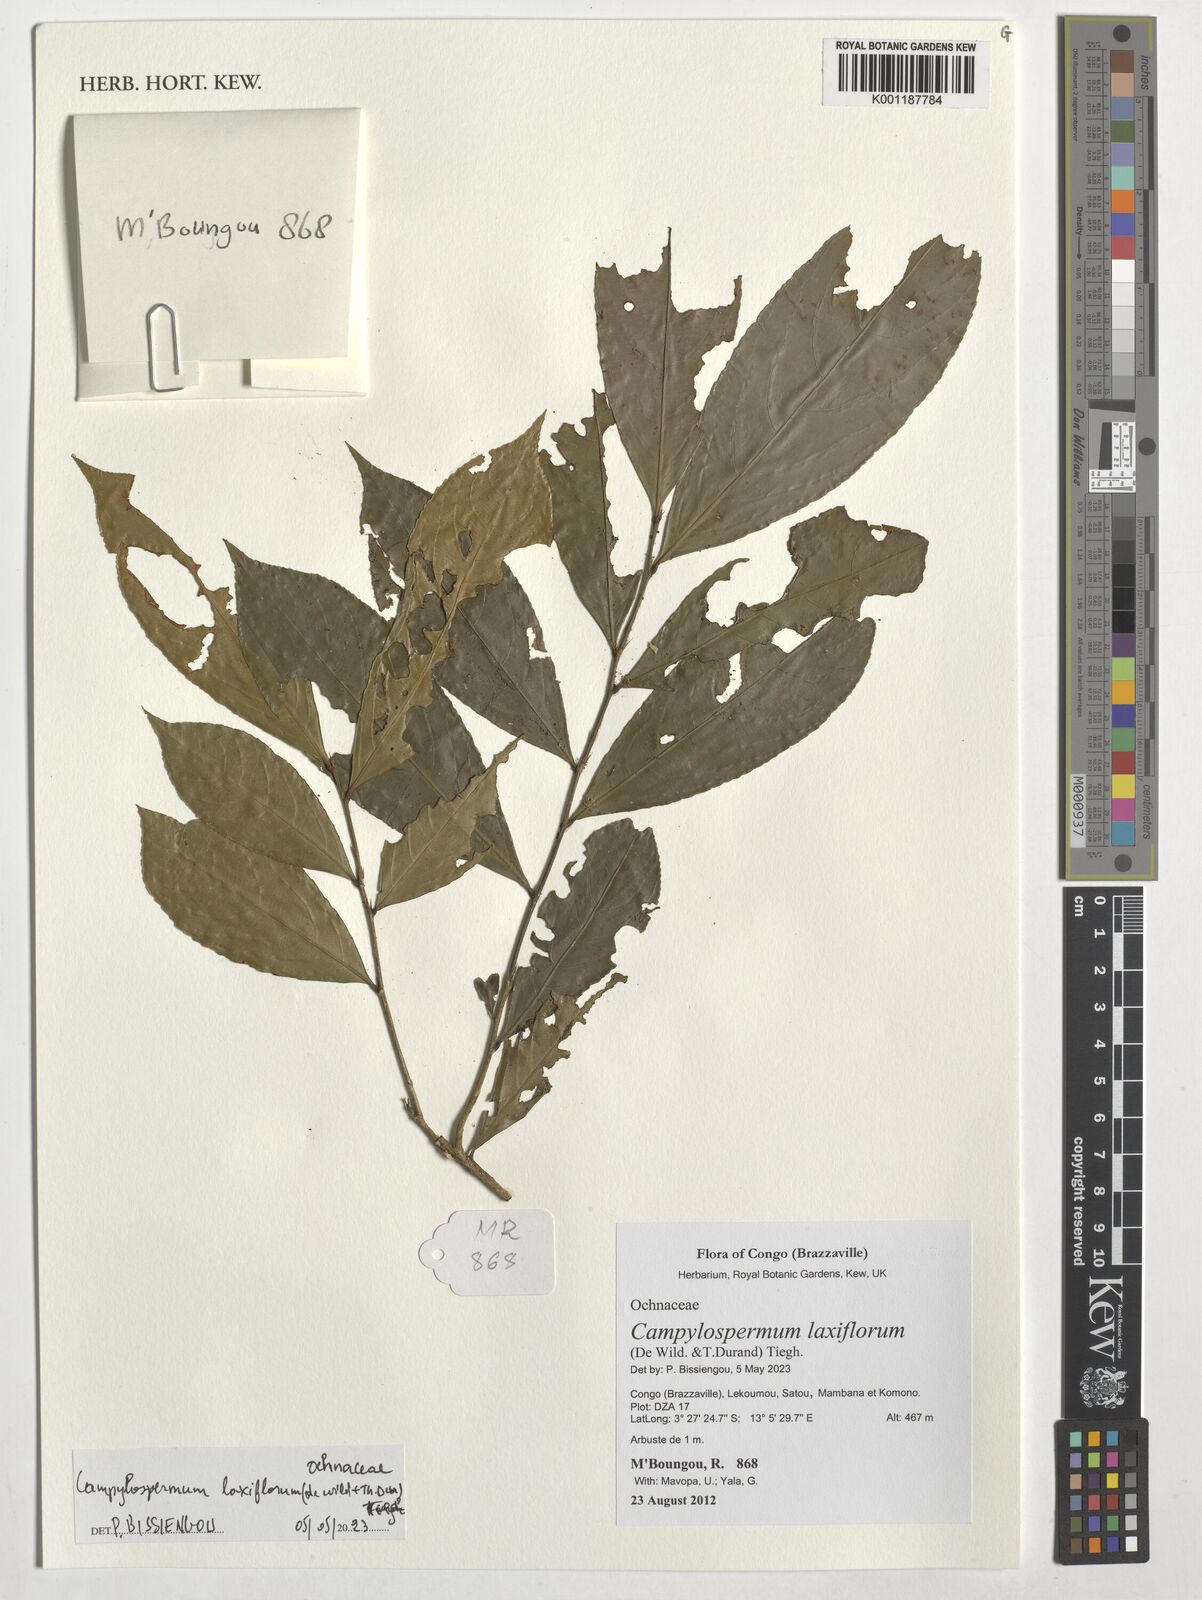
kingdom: Plantae
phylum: Tracheophyta
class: Magnoliopsida
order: Malpighiales
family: Ochnaceae
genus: Campylospermum
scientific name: Campylospermum laxiflorum
